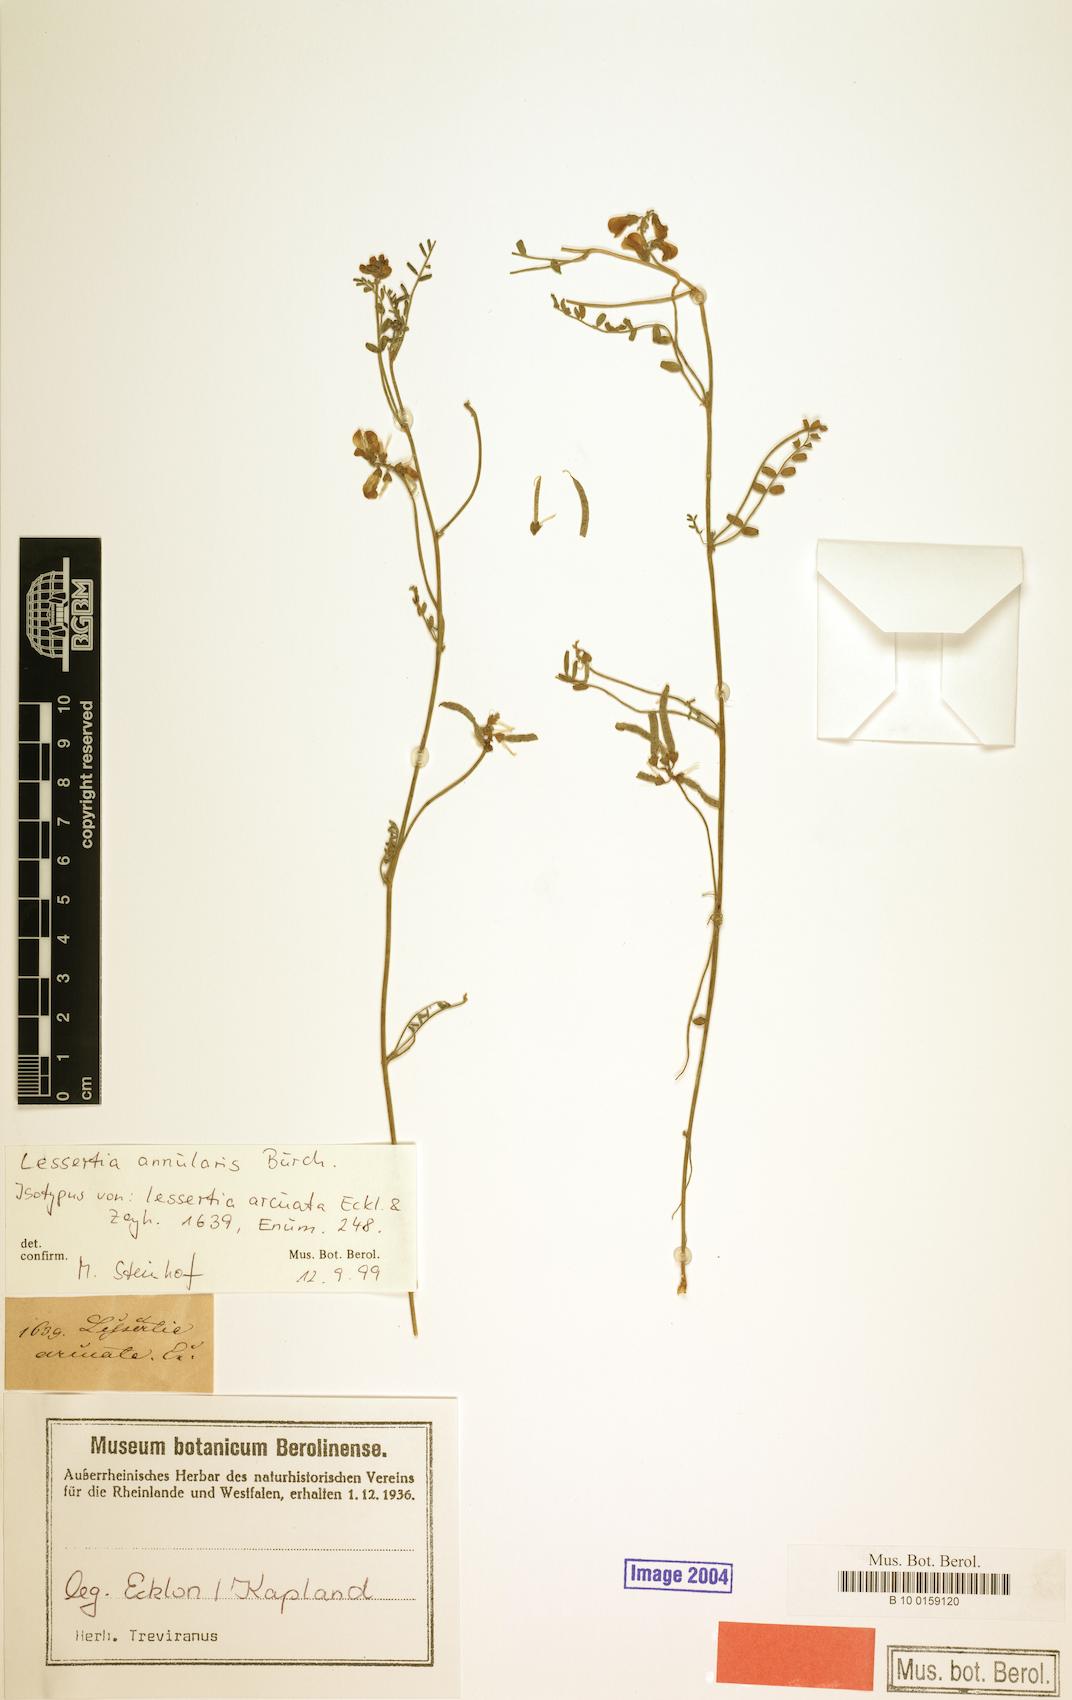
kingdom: Plantae
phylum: Tracheophyta
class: Magnoliopsida
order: Fabales
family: Fabaceae
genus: Lessertia
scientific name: Lessertia annularis
